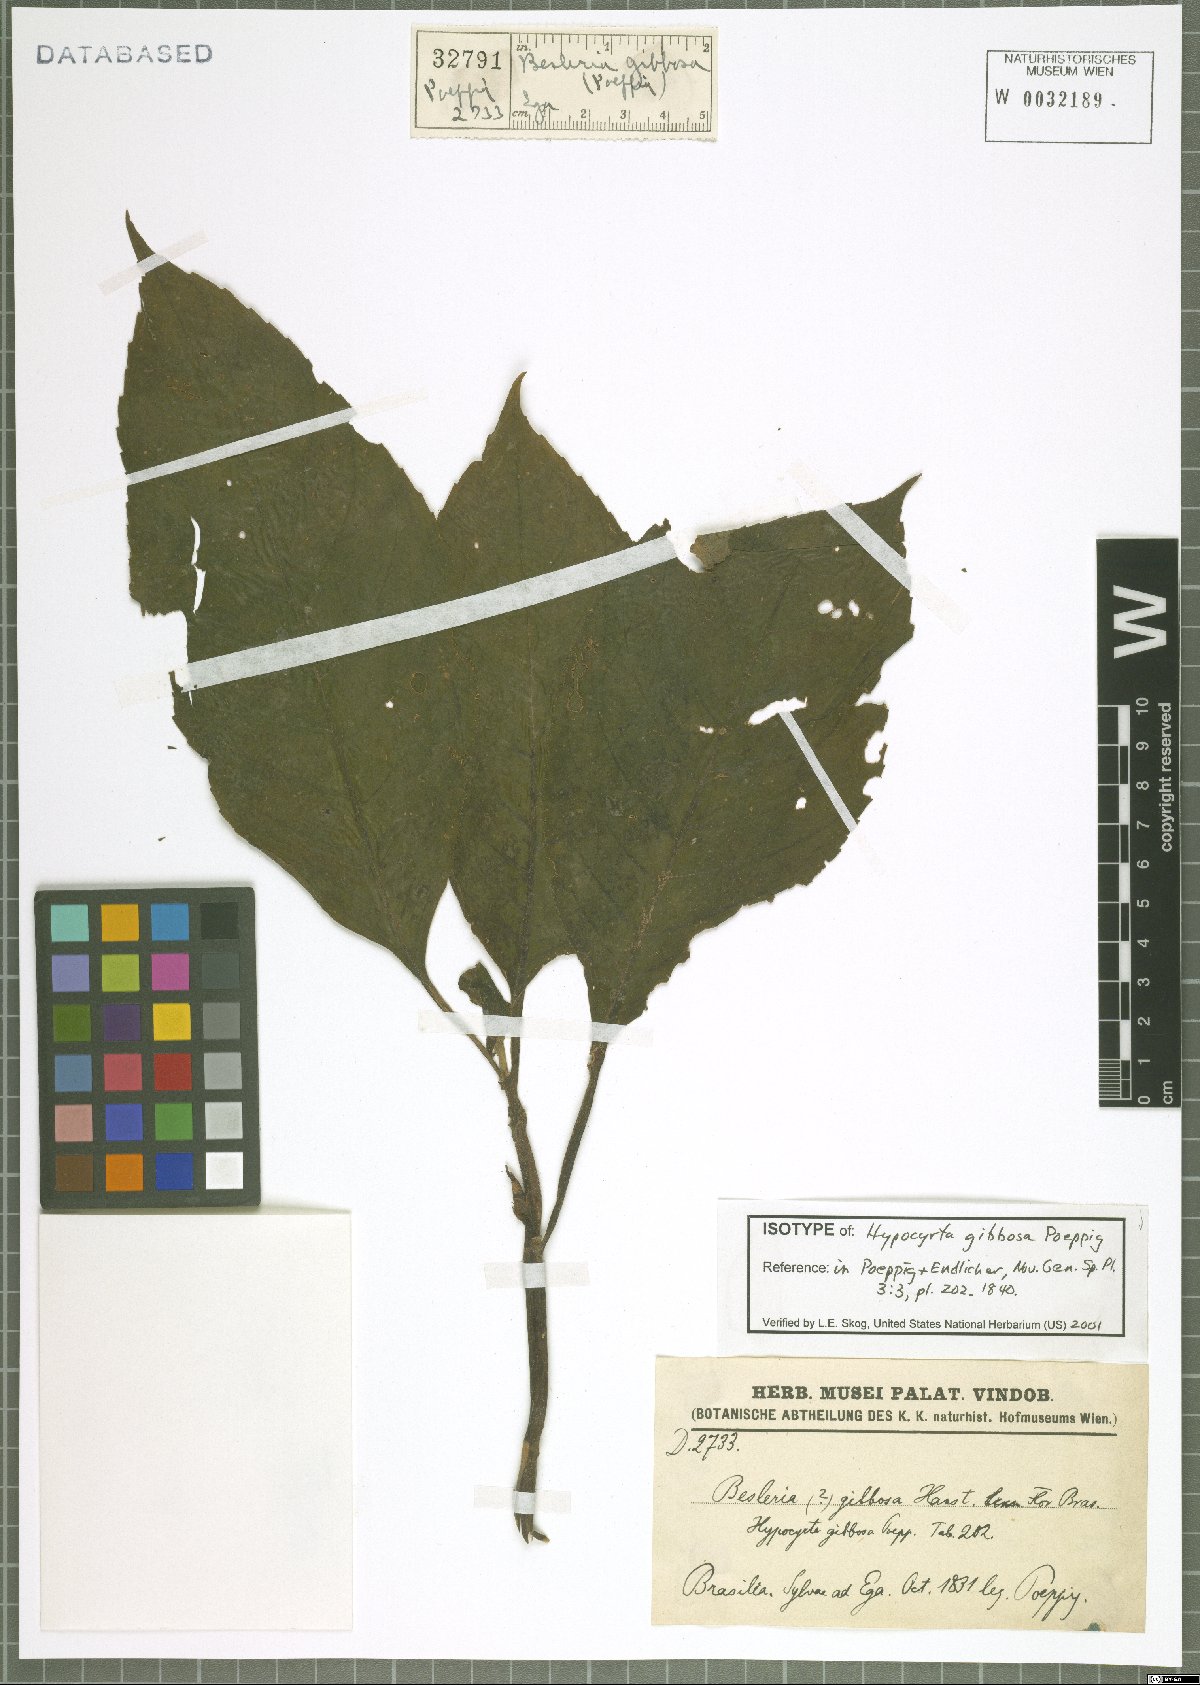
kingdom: Plantae
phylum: Tracheophyta
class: Magnoliopsida
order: Lamiales
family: Gesneriaceae
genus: Besleria
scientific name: Besleria gibbosa
